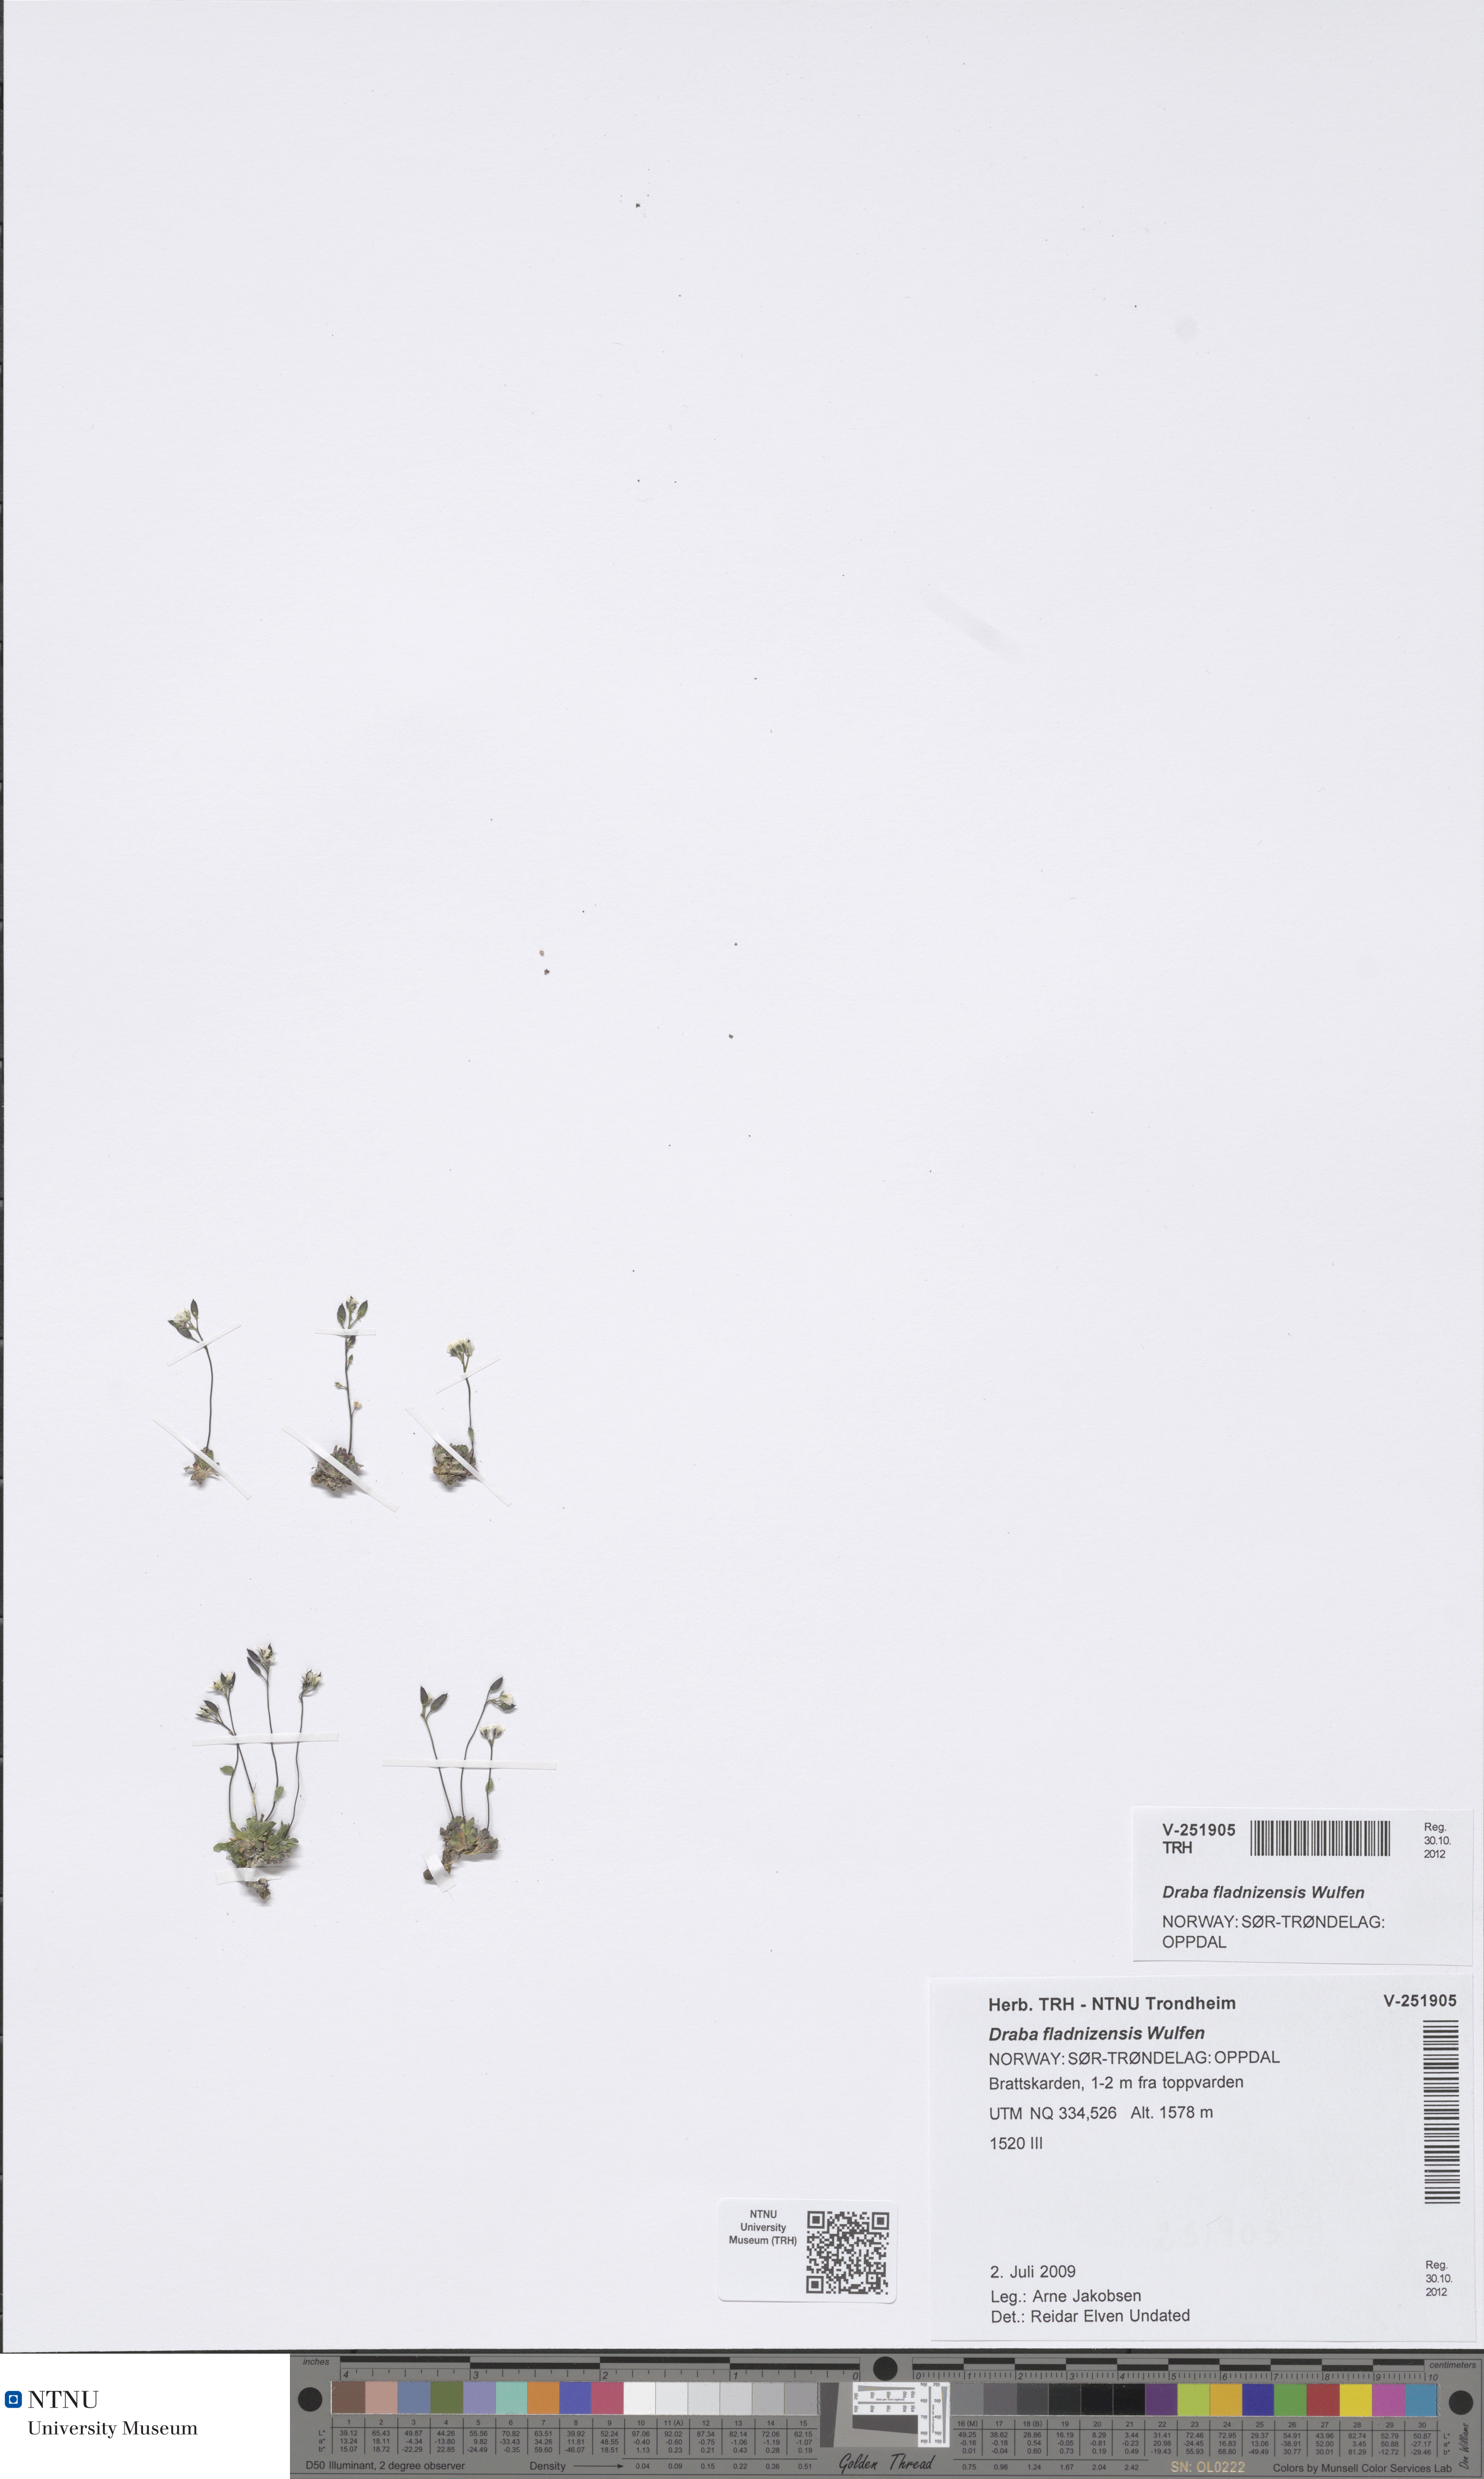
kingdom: Plantae
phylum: Tracheophyta
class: Magnoliopsida
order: Brassicales
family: Brassicaceae
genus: Draba
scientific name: Draba fladnizensis
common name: Austrian draba
